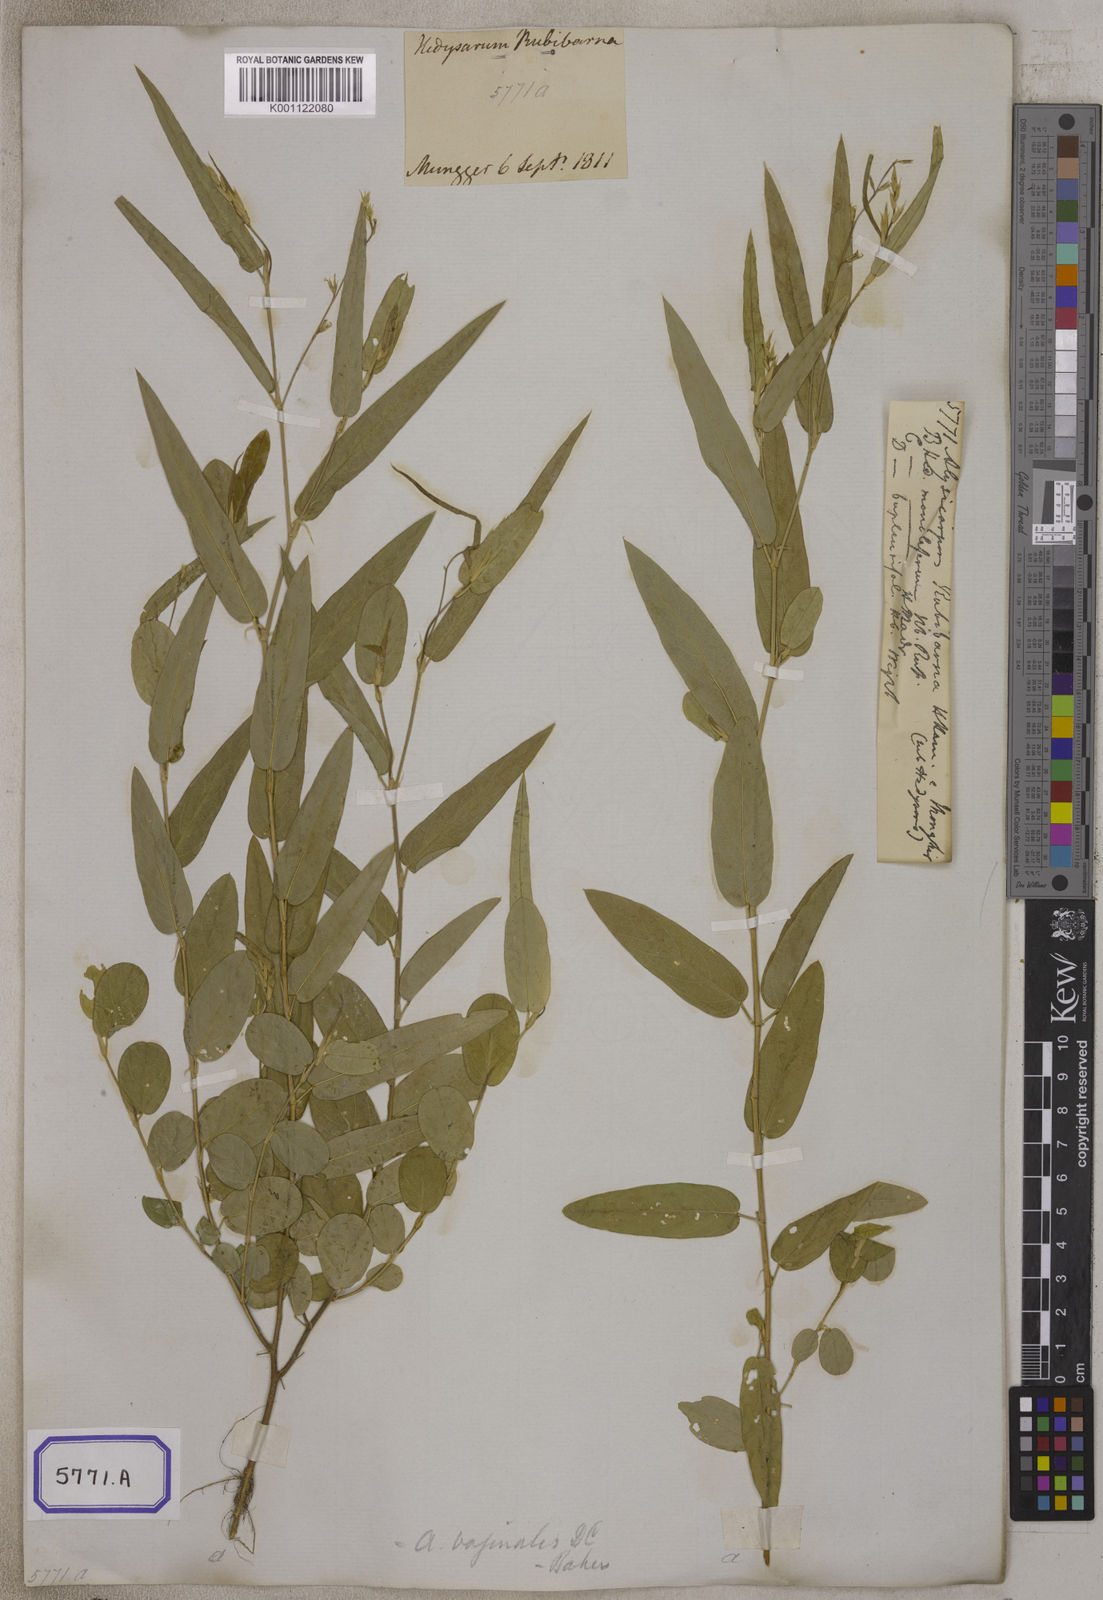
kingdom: Plantae
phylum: Tracheophyta
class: Magnoliopsida
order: Fabales
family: Fabaceae
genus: Alysicarpus
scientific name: Alysicarpus vaginalis
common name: White moneywort
